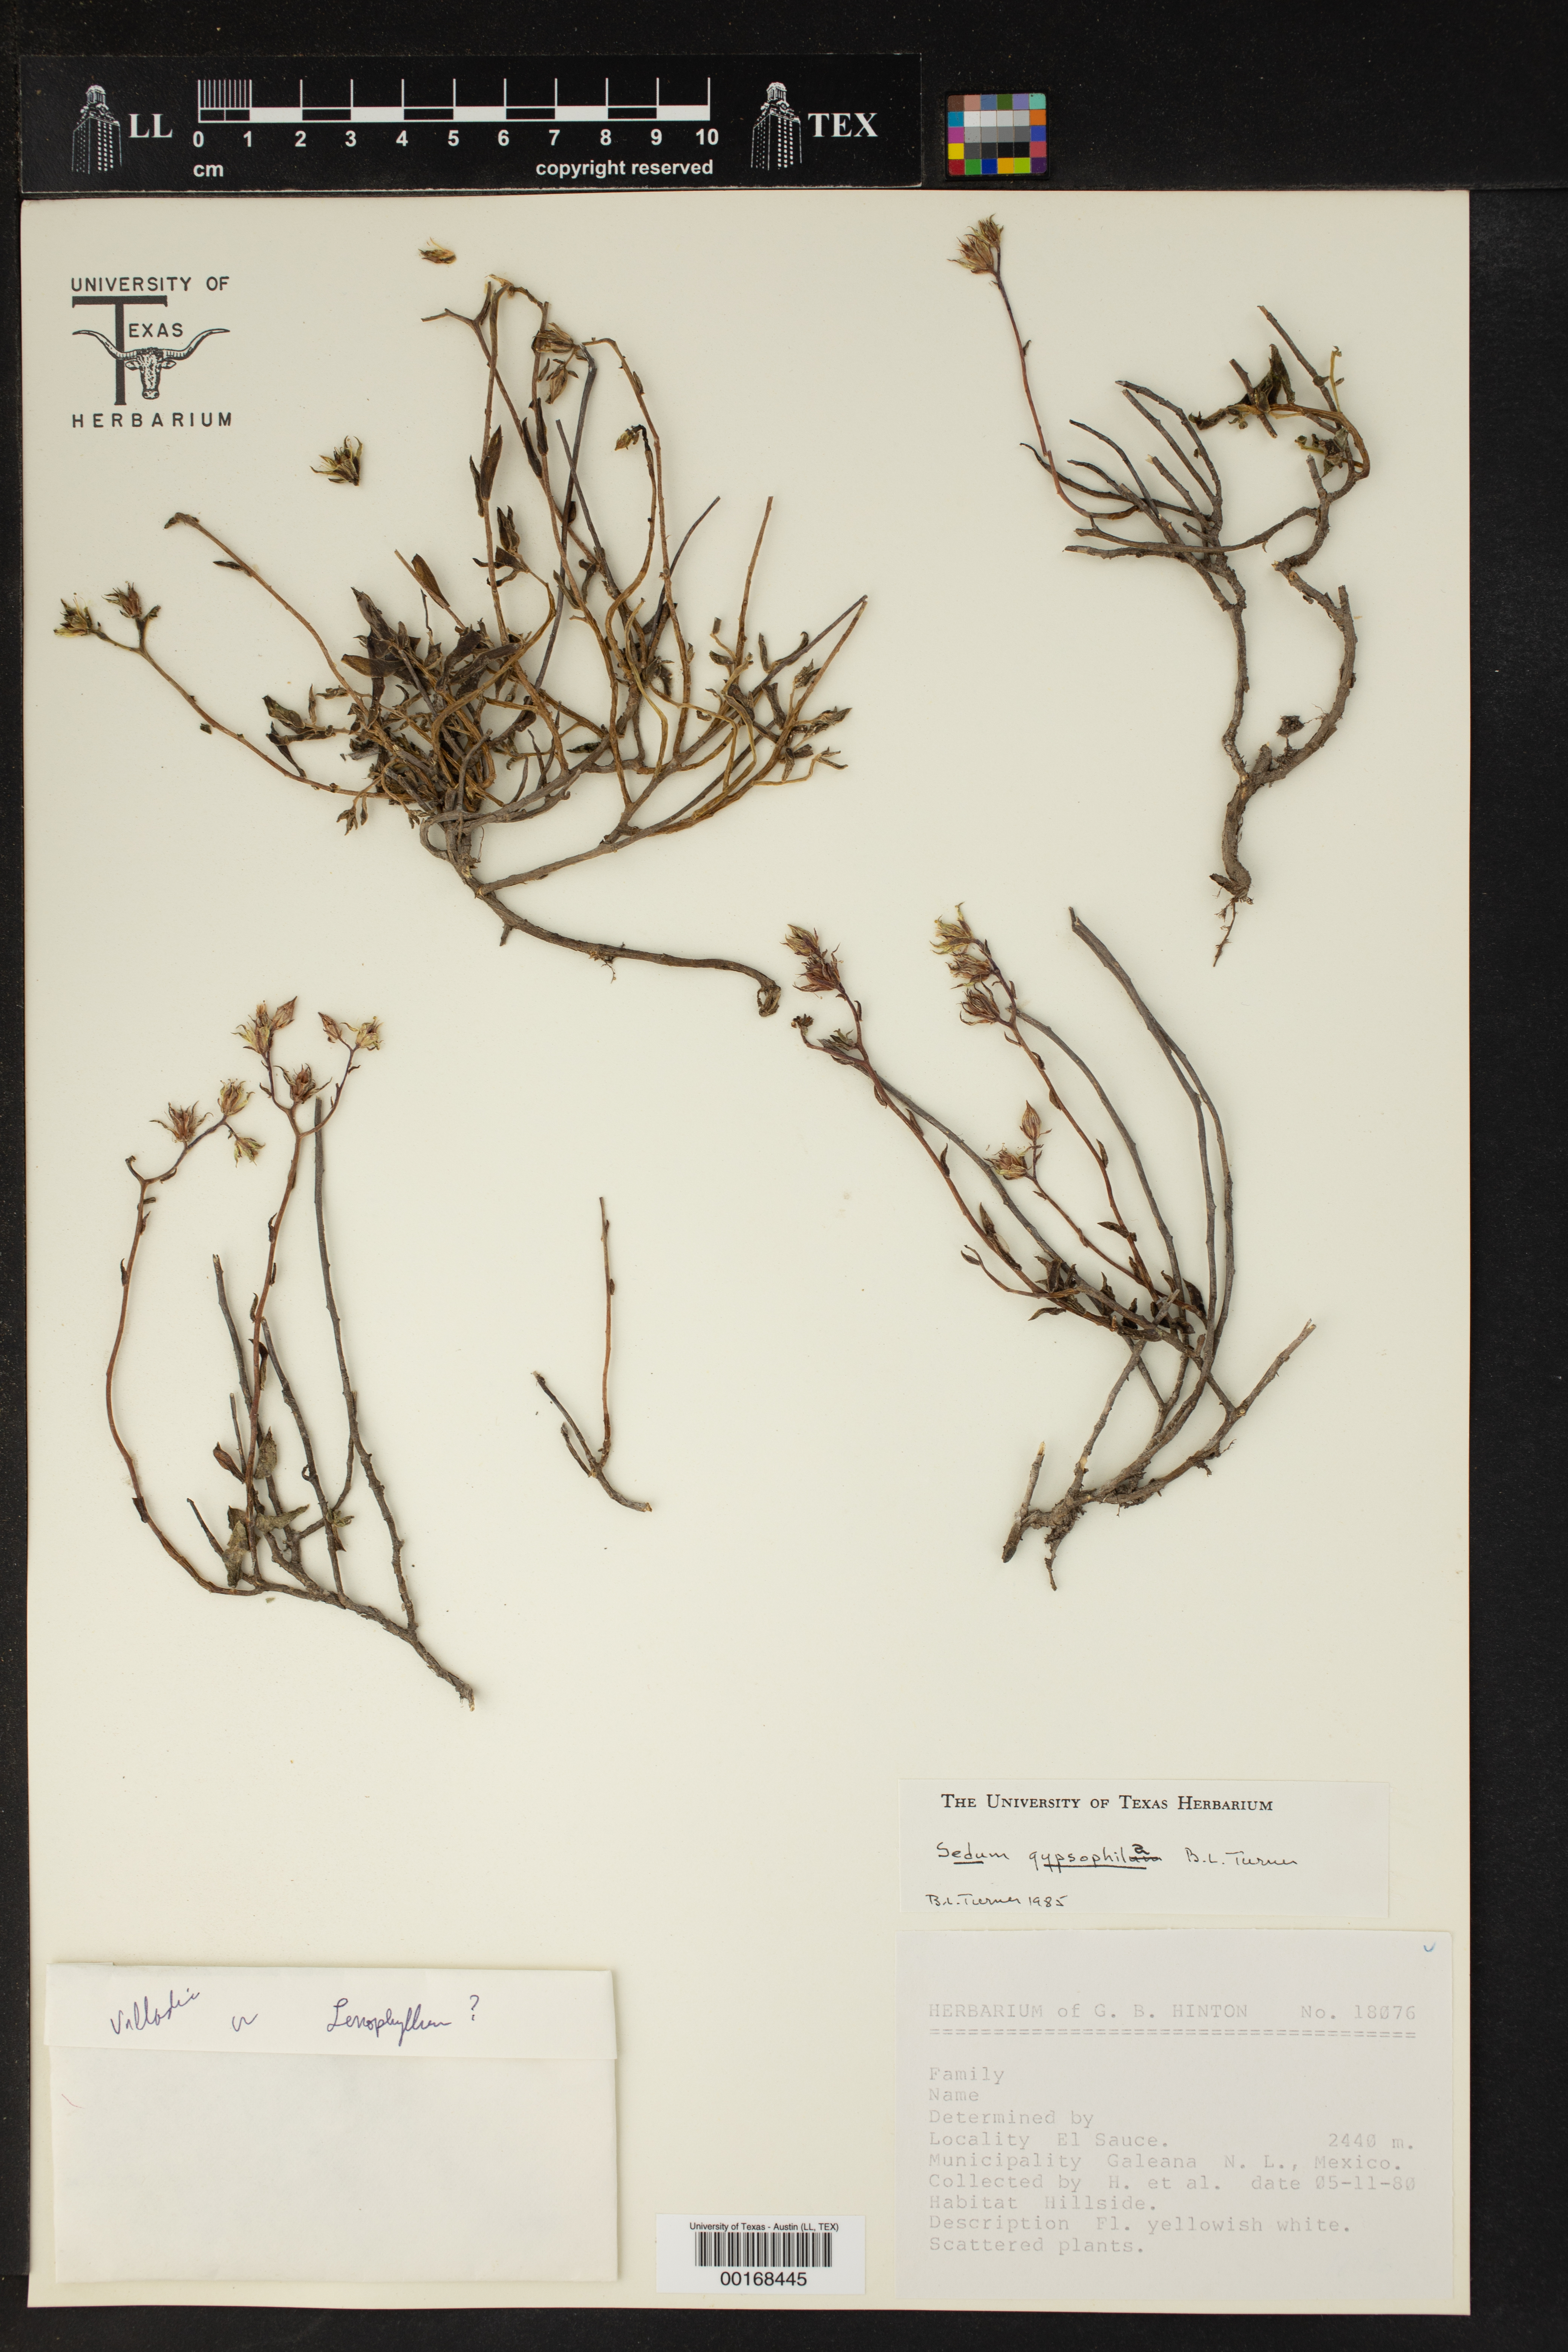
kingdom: Plantae
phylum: Tracheophyta
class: Magnoliopsida
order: Saxifragales
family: Crassulaceae
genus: Sedum
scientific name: Sedum gypsophilum
